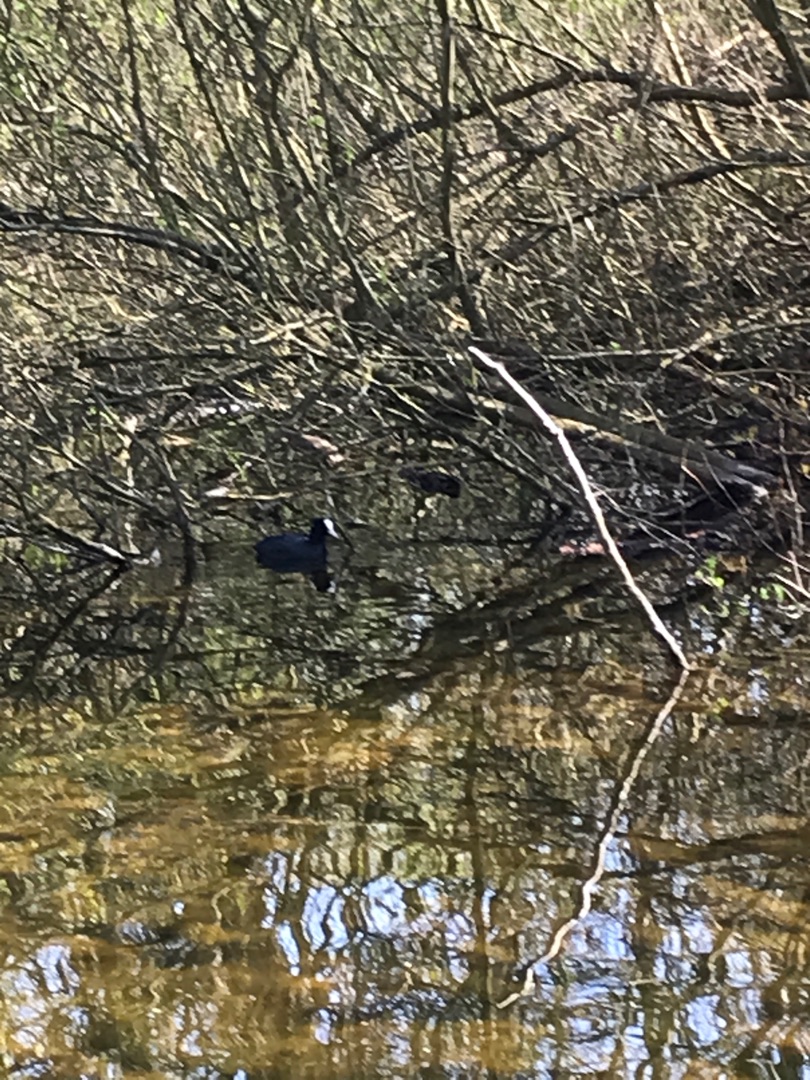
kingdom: Animalia
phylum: Chordata
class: Aves
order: Gruiformes
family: Rallidae
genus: Fulica
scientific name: Fulica atra
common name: Blishøne
